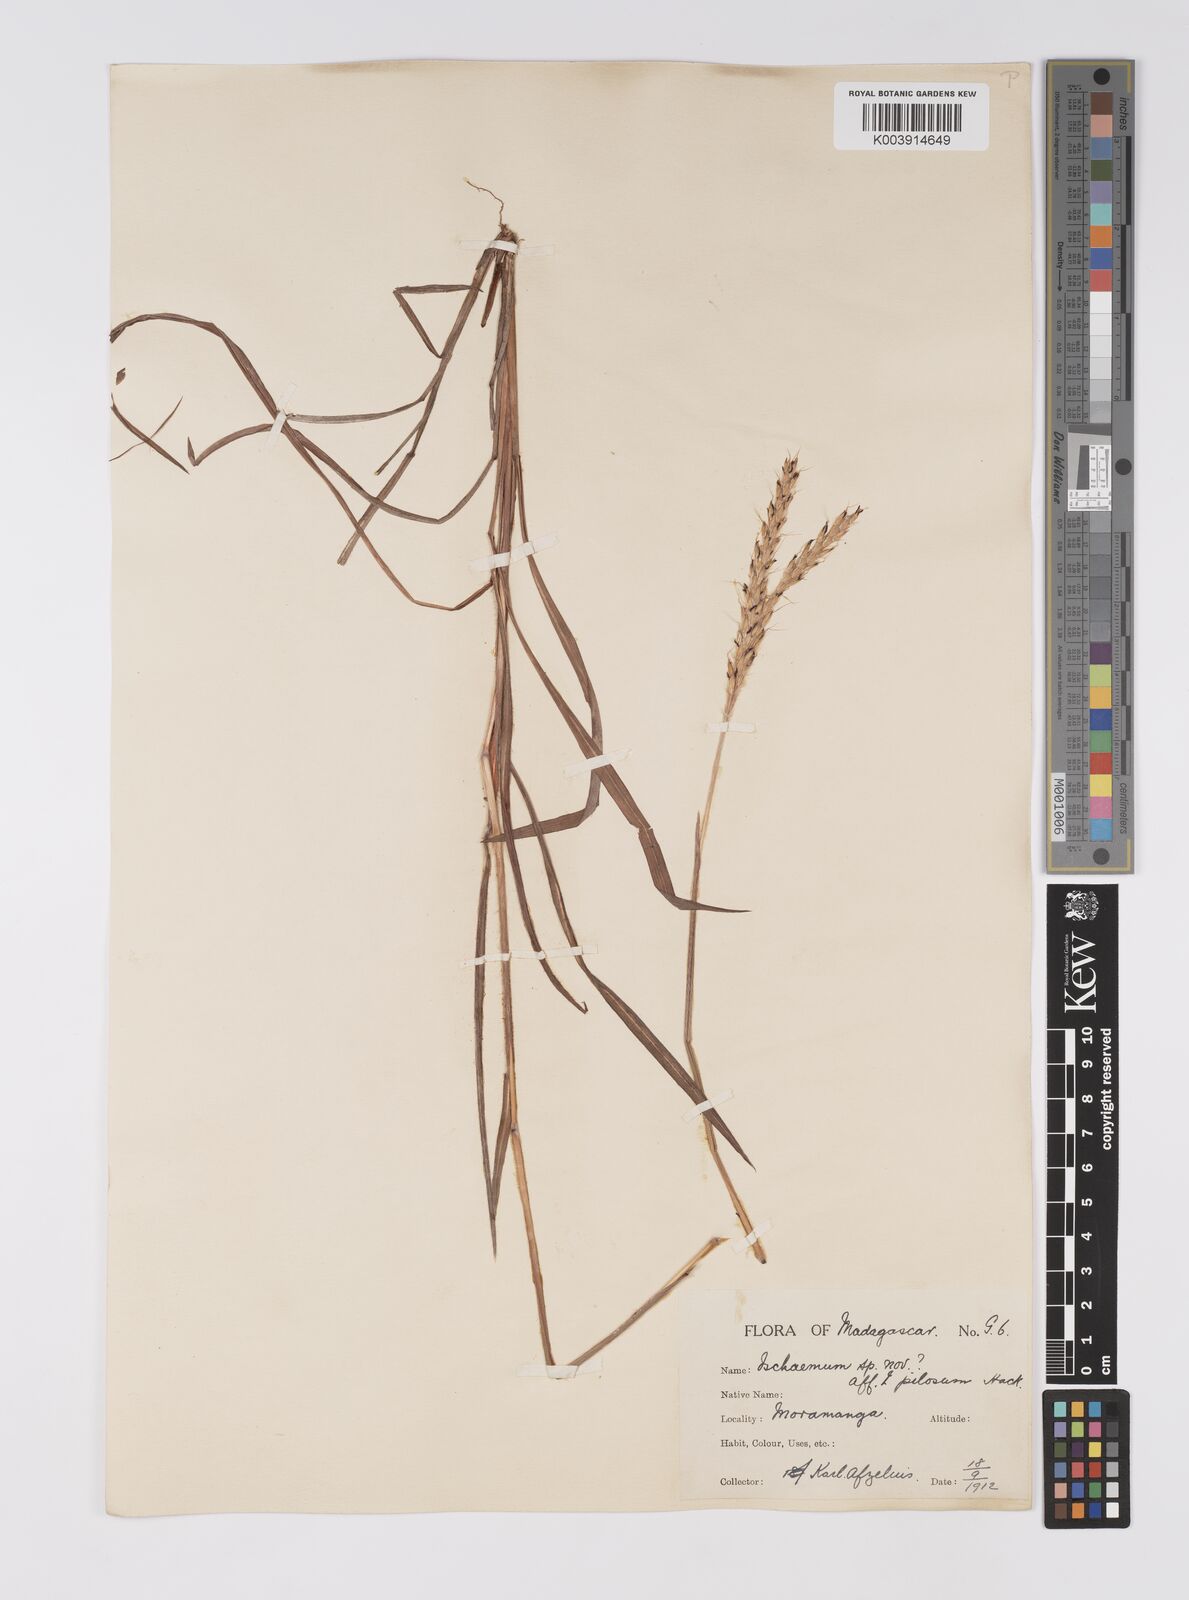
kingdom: Plantae
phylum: Tracheophyta
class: Liliopsida
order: Poales
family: Poaceae
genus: Eulalia
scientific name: Eulalia villosa
